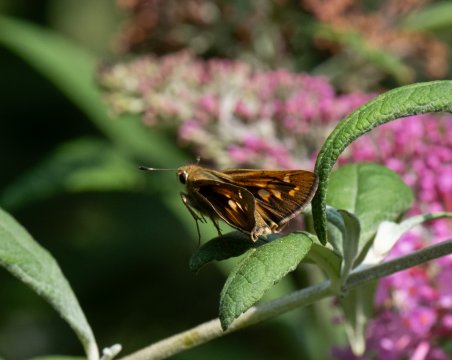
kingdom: Animalia
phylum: Arthropoda
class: Insecta
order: Lepidoptera
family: Hesperiidae
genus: Hylephila
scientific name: Hylephila phyleus
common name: Fiery Skipper
